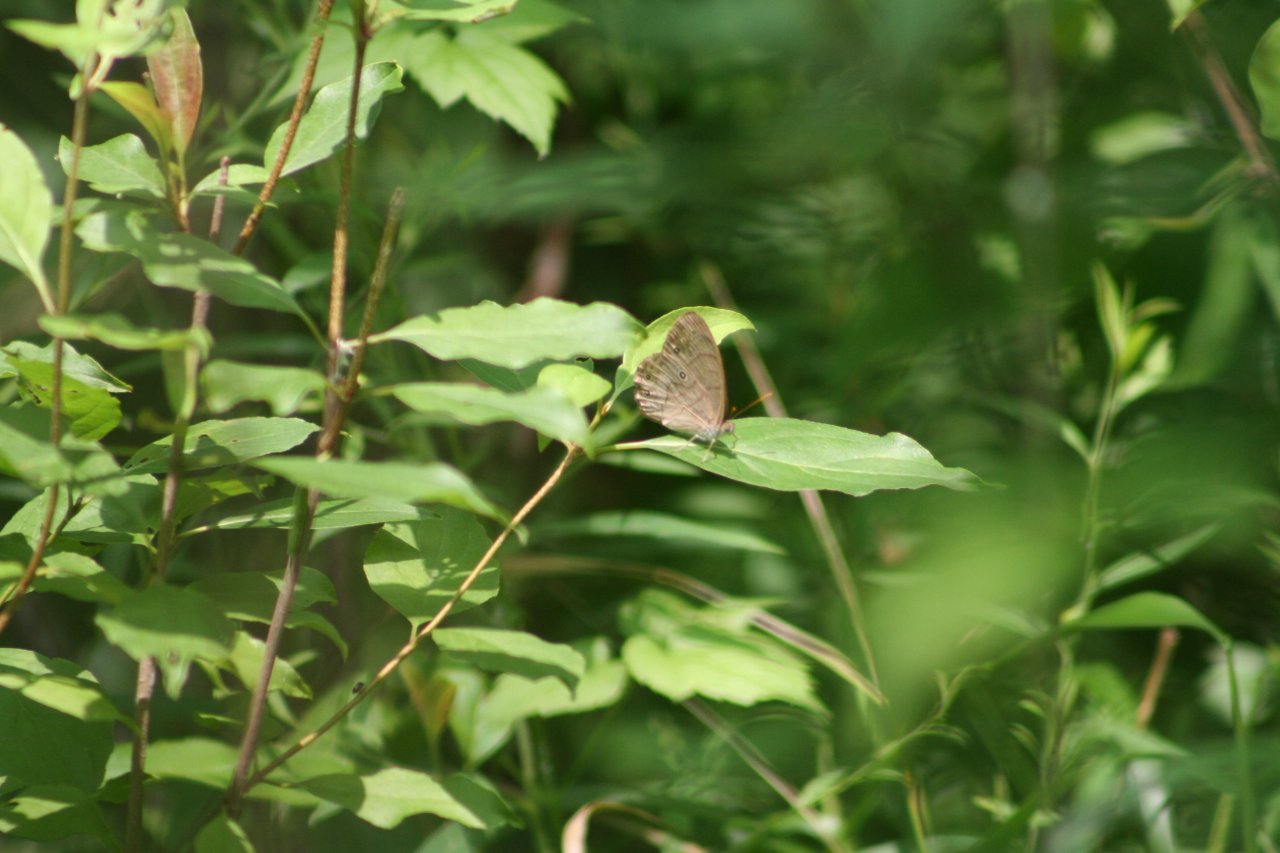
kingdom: Animalia
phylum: Arthropoda
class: Insecta
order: Lepidoptera
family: Nymphalidae
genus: Lethe
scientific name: Lethe
